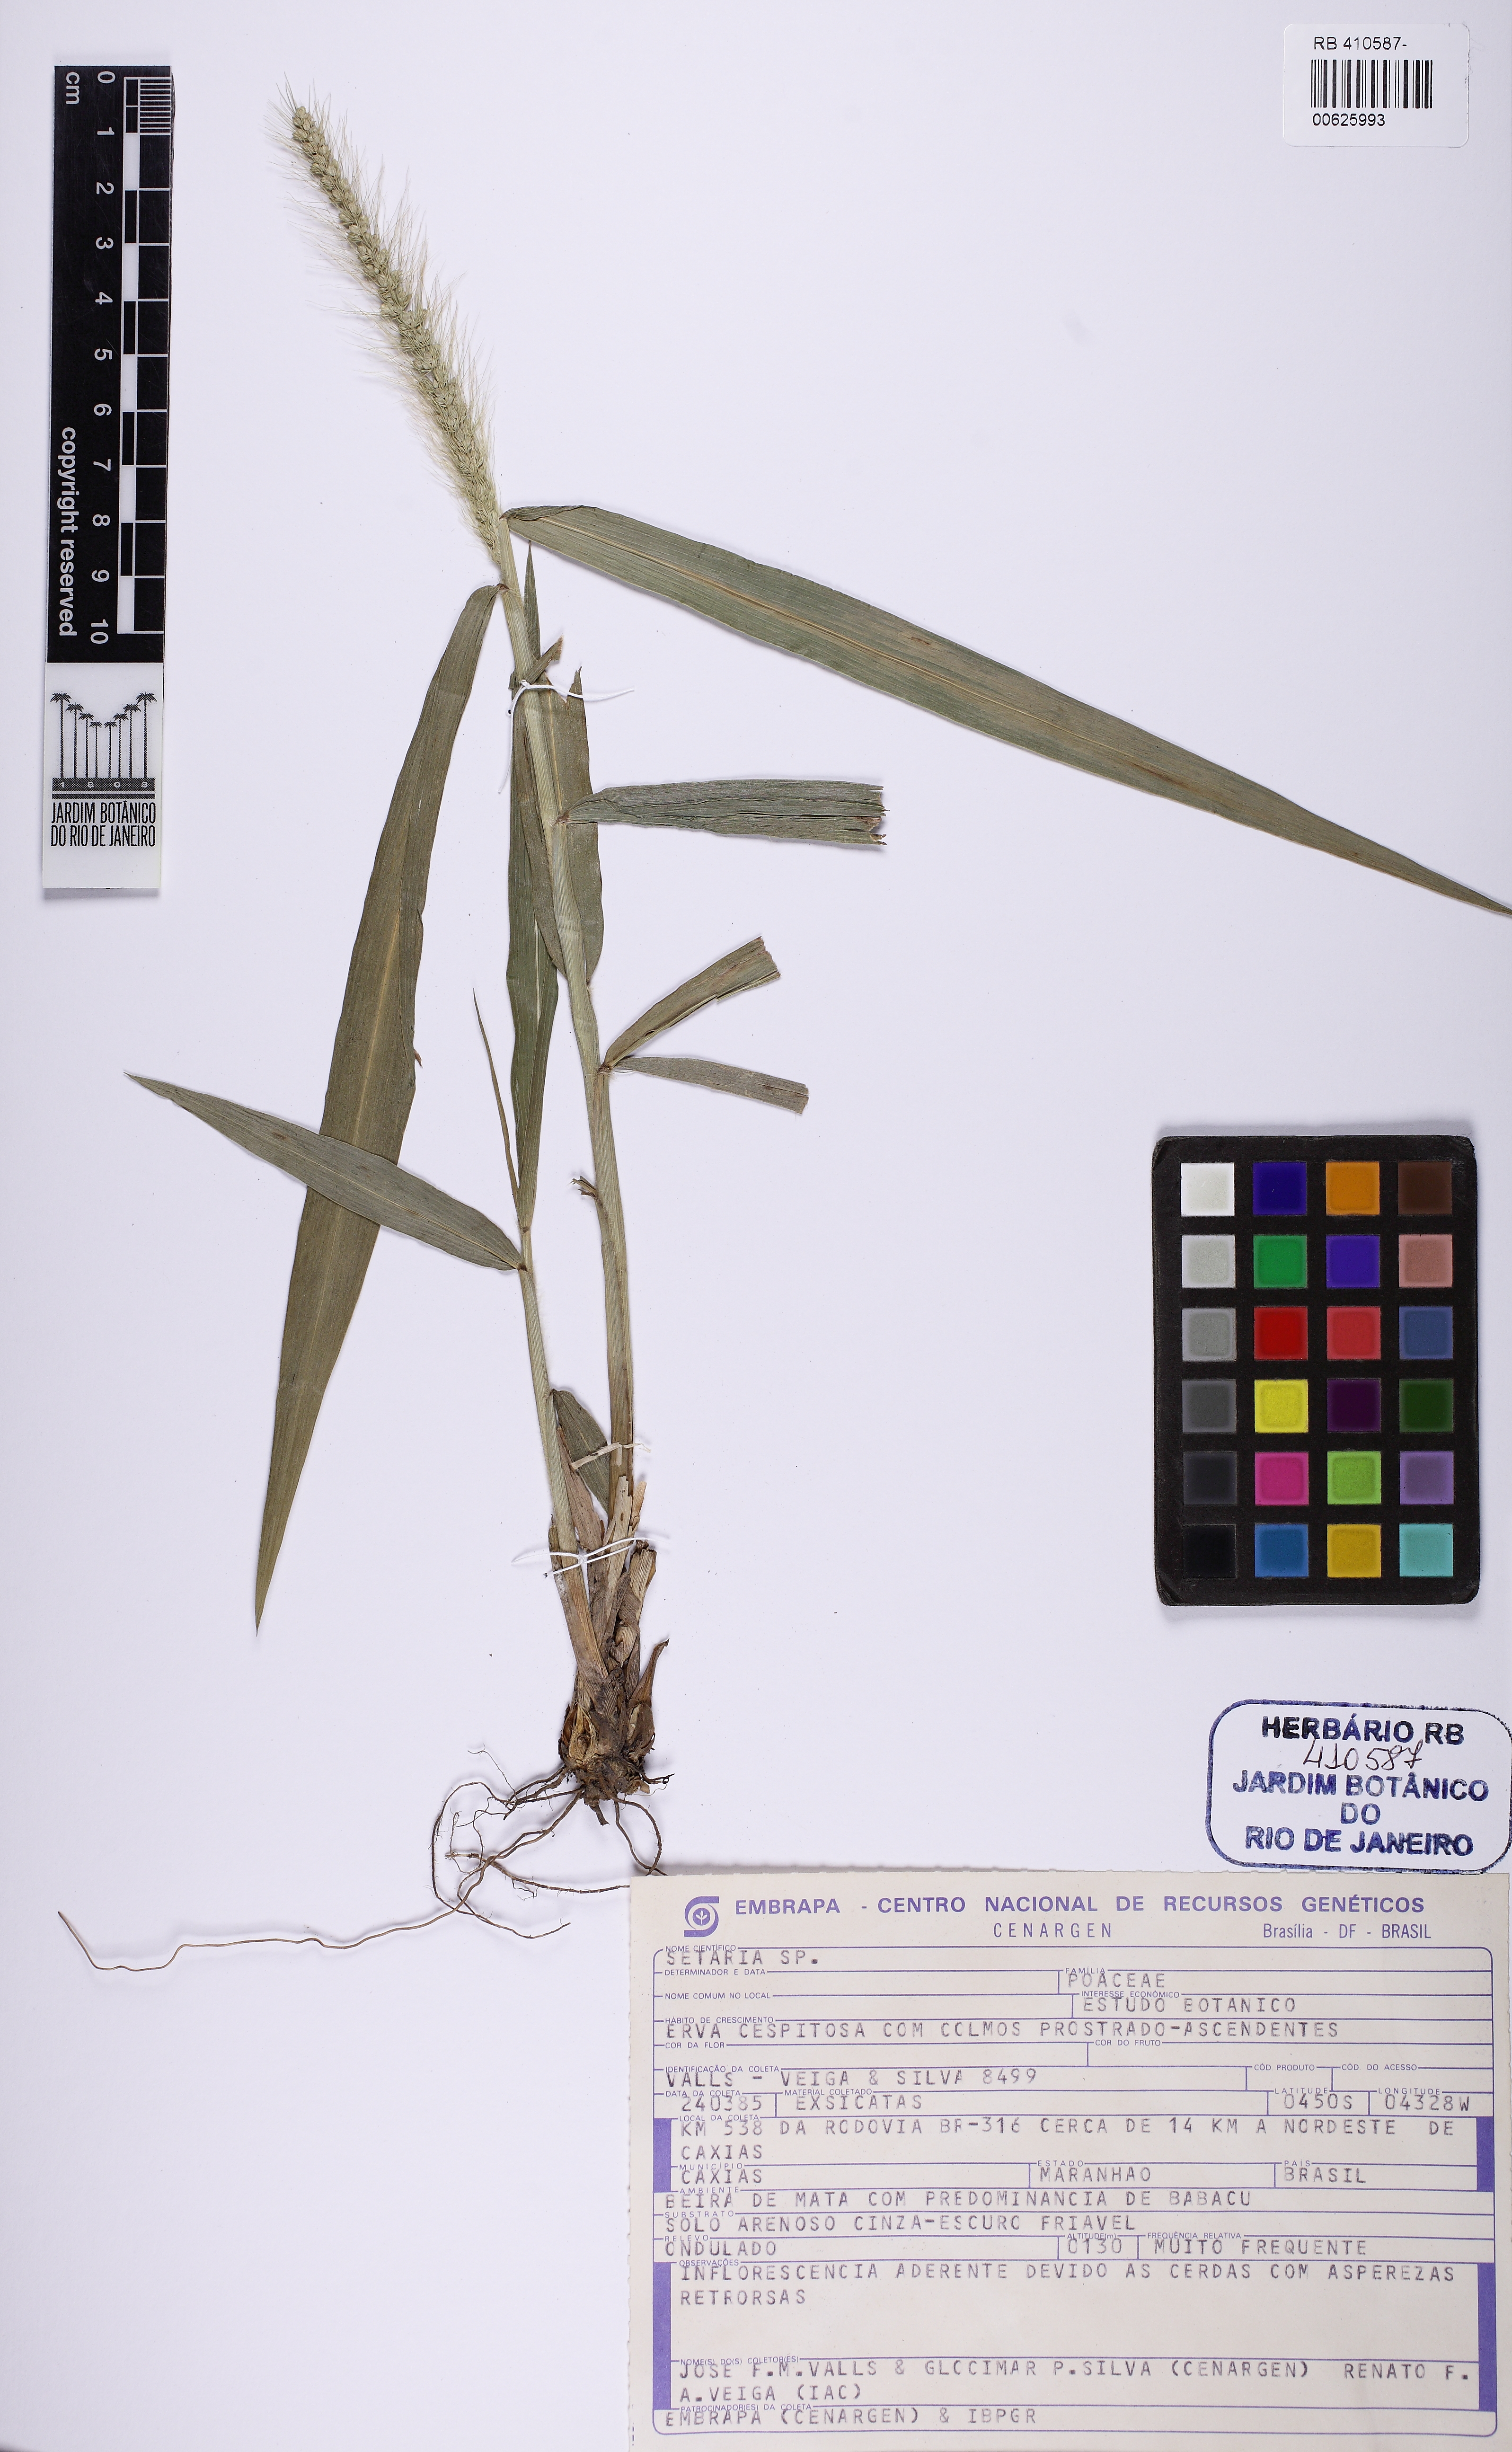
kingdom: Plantae
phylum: Tracheophyta
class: Liliopsida
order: Poales
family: Poaceae
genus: Setaria
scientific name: Setaria
